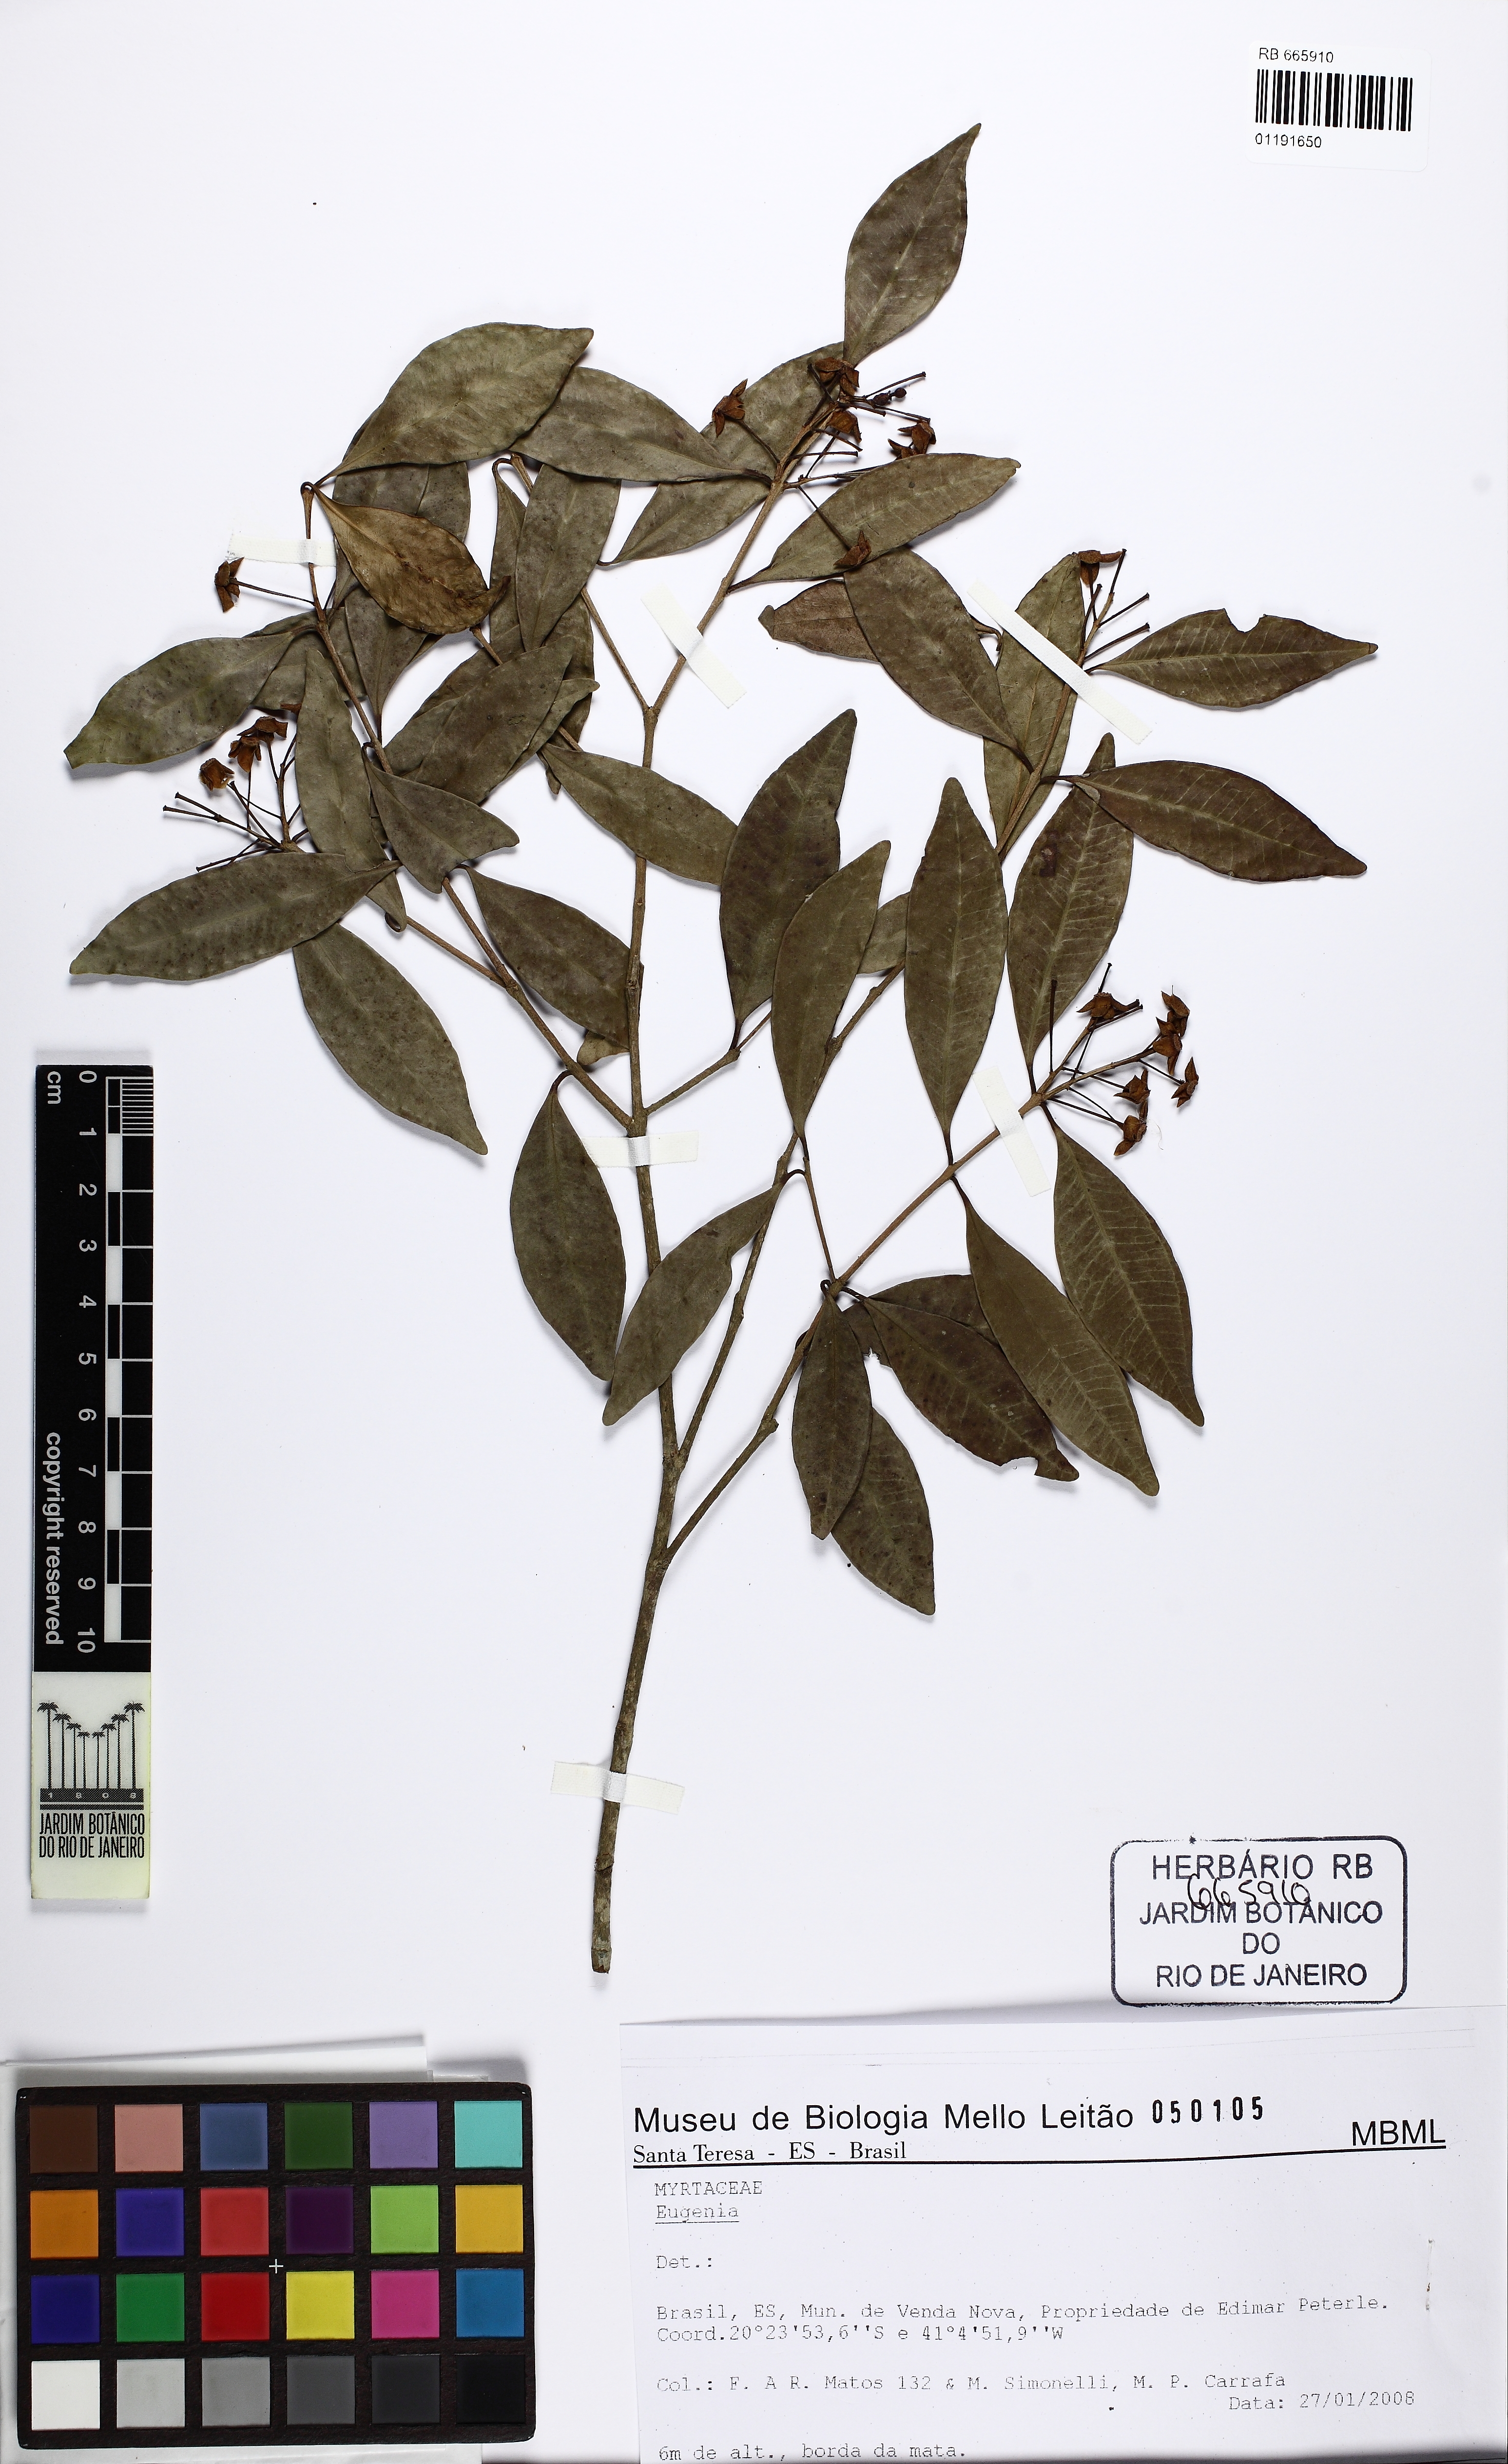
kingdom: Plantae
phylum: Tracheophyta
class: Magnoliopsida
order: Myrtales
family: Myrtaceae
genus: Eugenia
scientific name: Eugenia nutans
